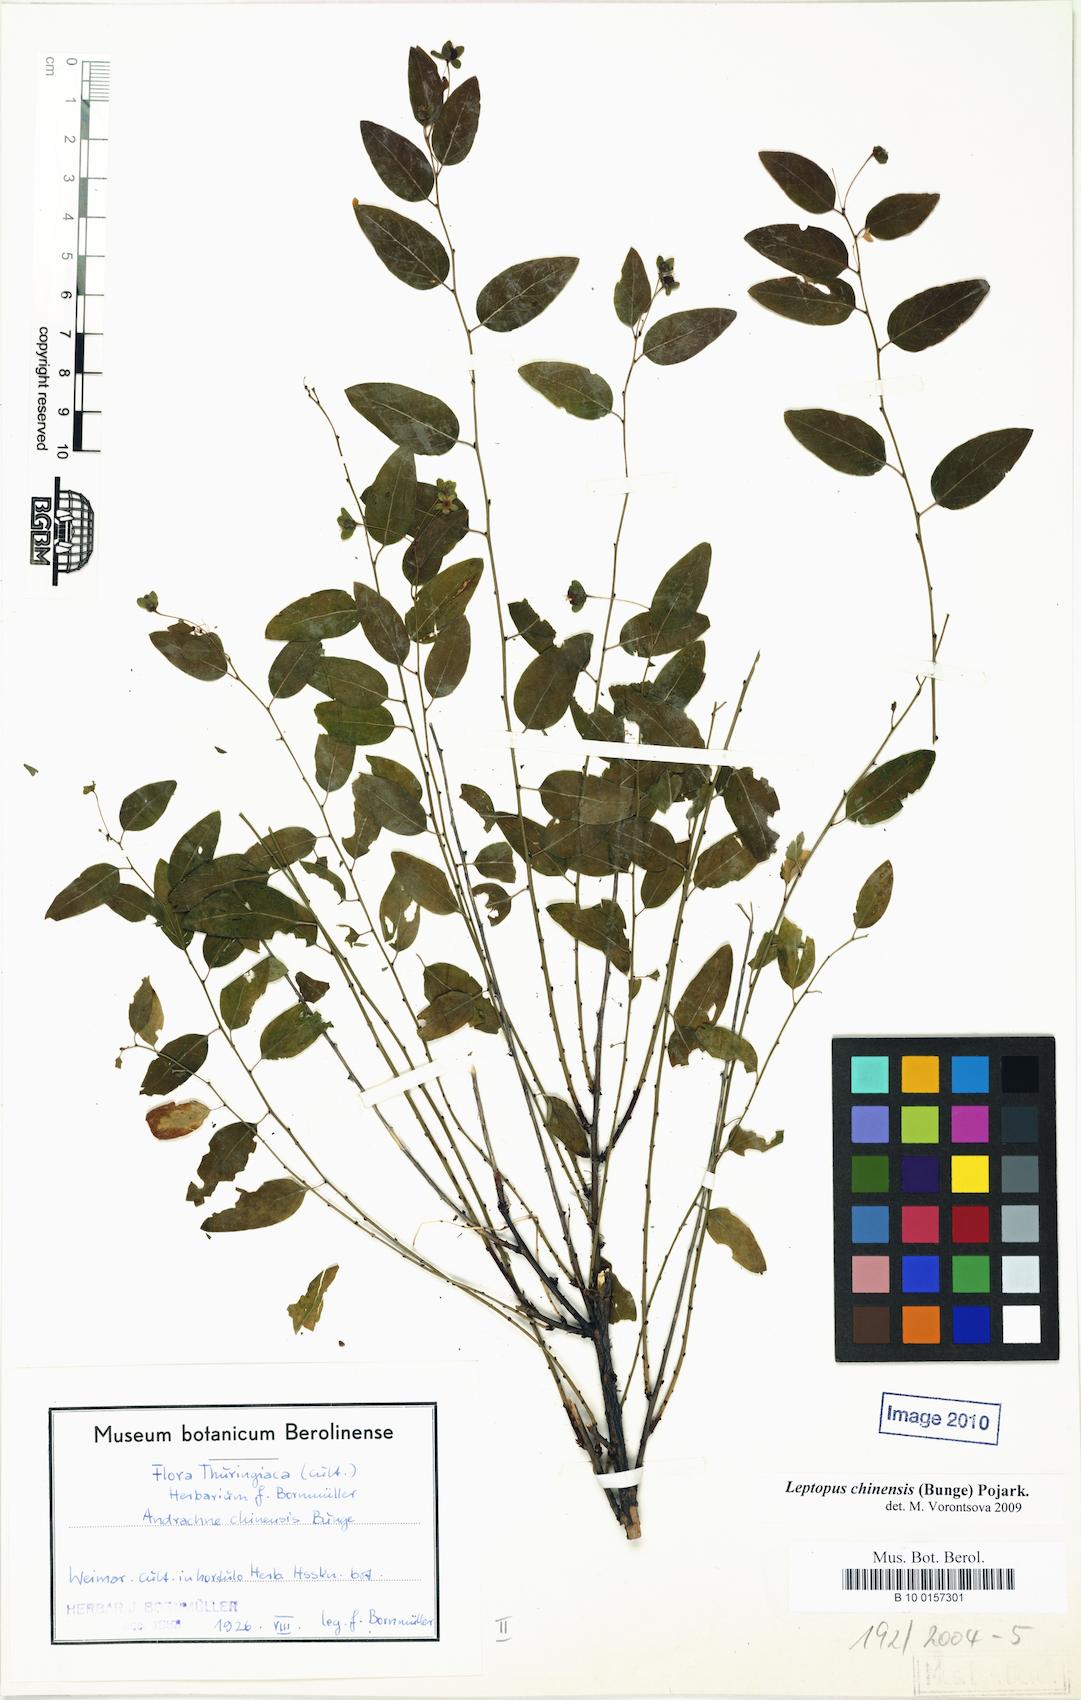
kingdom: Plantae
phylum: Tracheophyta
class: Magnoliopsida
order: Malpighiales
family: Phyllanthaceae
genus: Leptopus
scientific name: Leptopus chinensis
